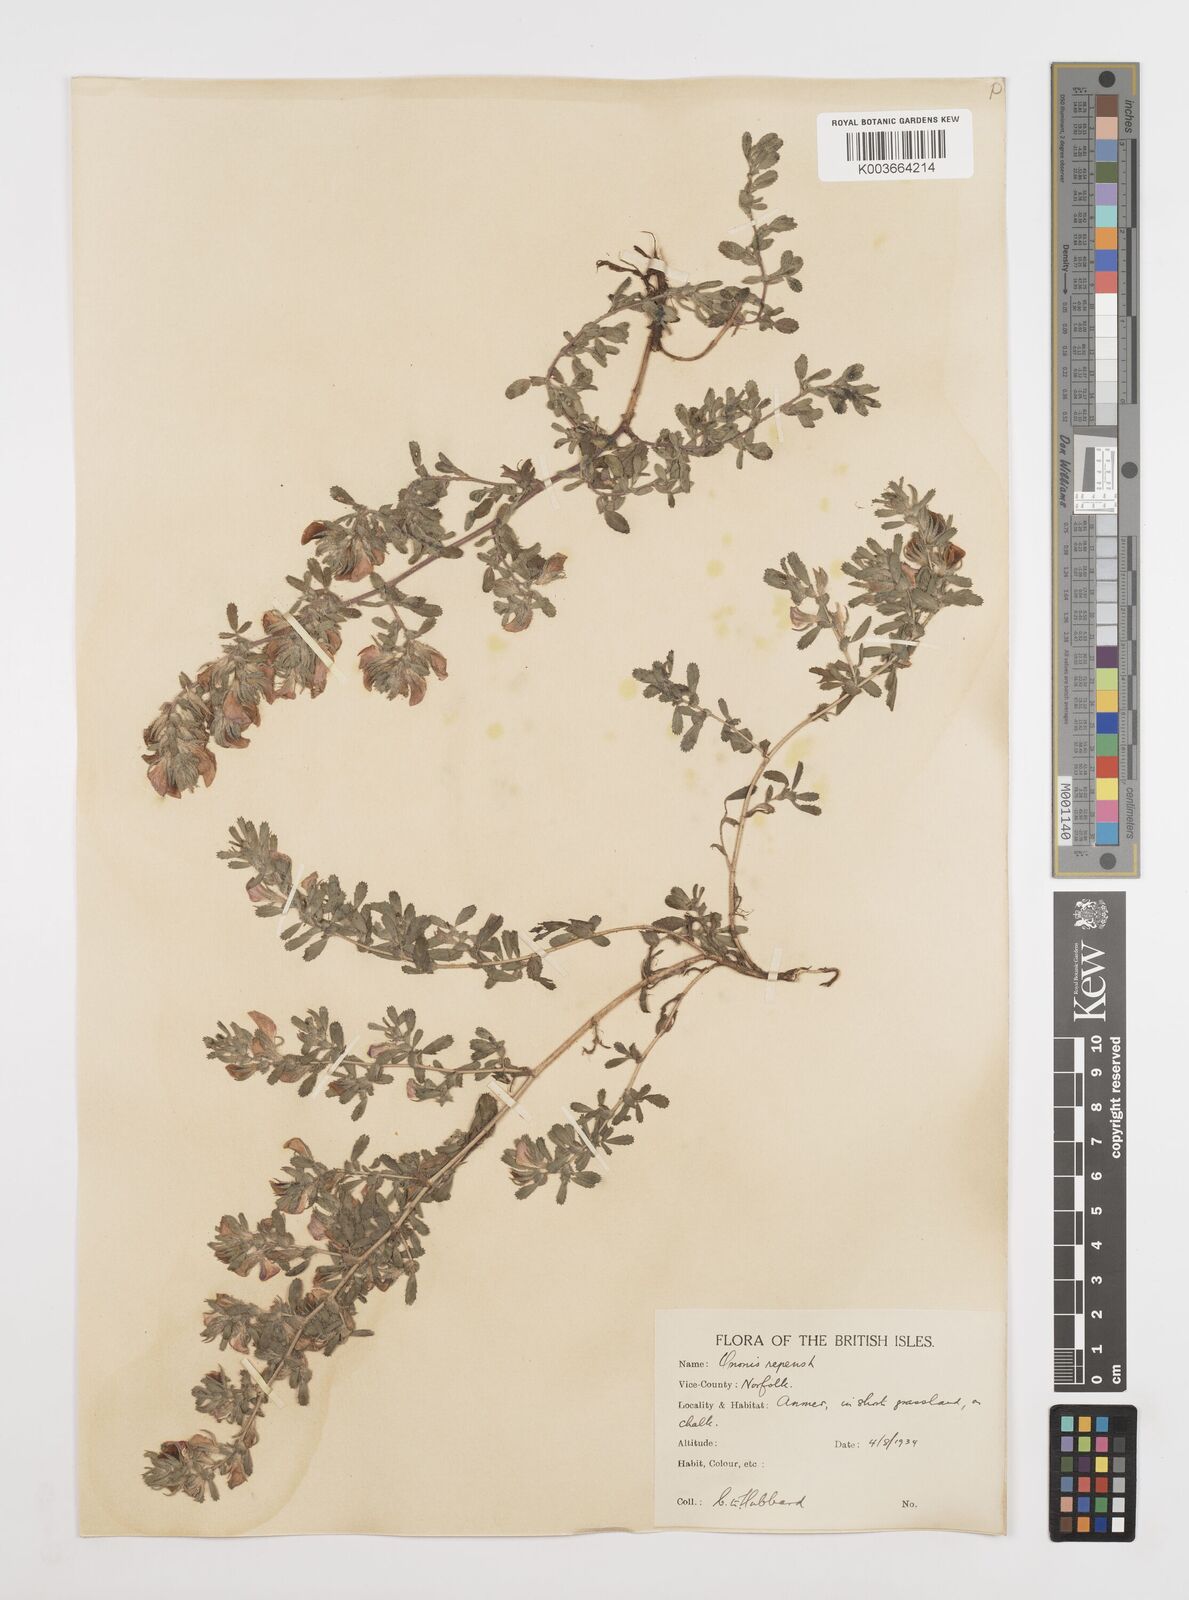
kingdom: Plantae
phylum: Tracheophyta
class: Magnoliopsida
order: Fabales
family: Fabaceae
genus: Ononis
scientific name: Ononis spinosa
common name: Spiny restharrow
